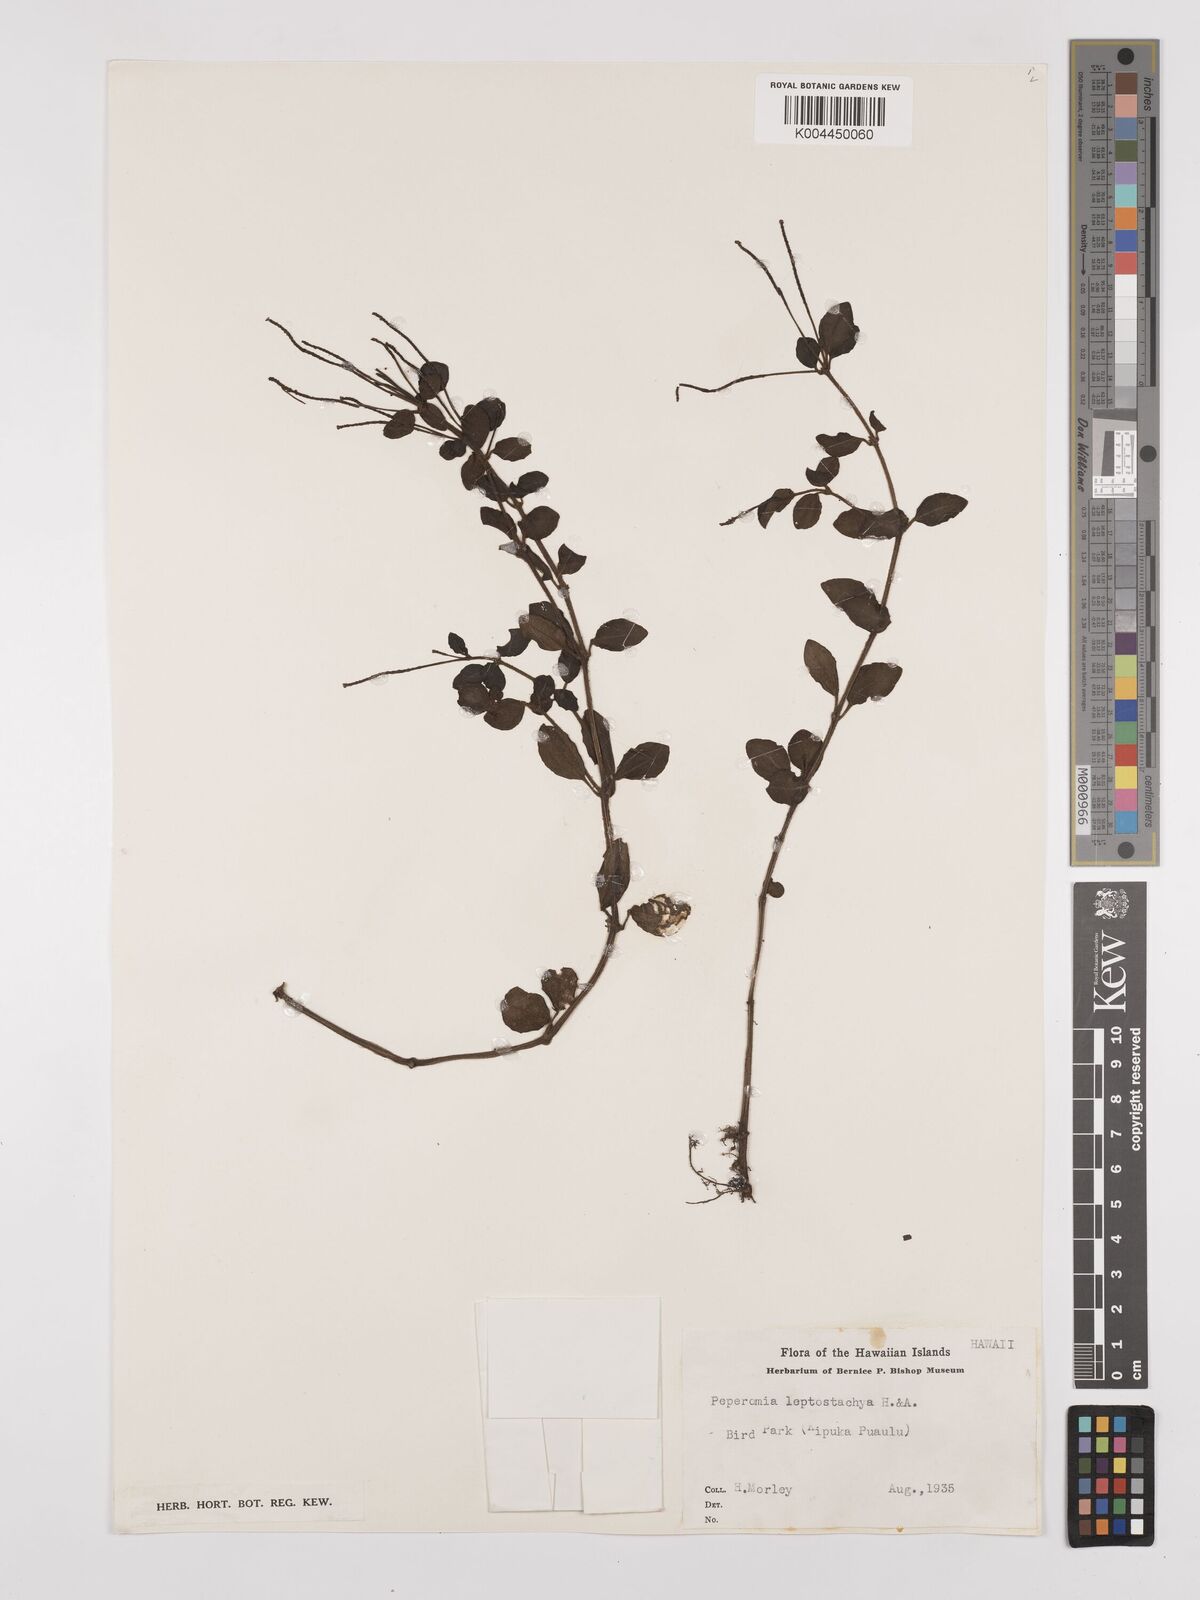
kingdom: Plantae
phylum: Tracheophyta
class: Magnoliopsida
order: Piperales
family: Piperaceae
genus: Peperomia
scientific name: Peperomia leptostachya
